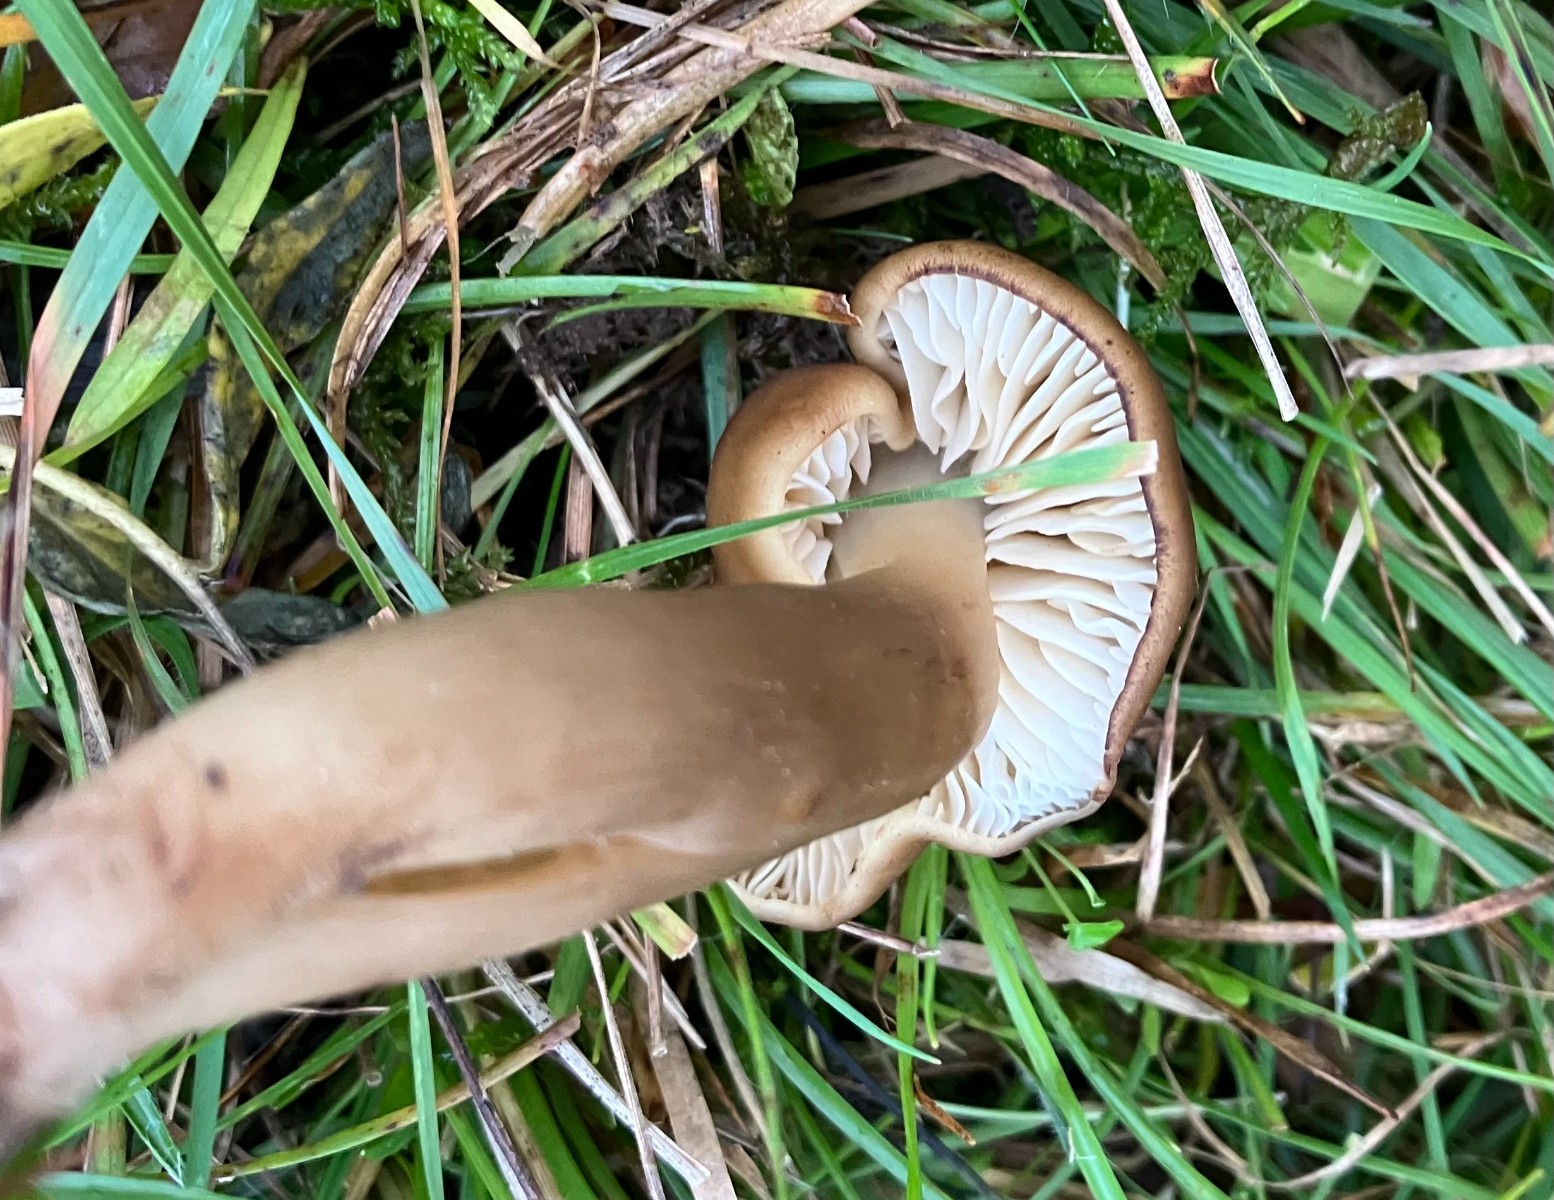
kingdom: Fungi
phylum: Basidiomycota
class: Agaricomycetes
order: Agaricales
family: Hygrophoraceae
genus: Hygrocybe
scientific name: Hygrocybe ingrata
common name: Jensens vokshat
